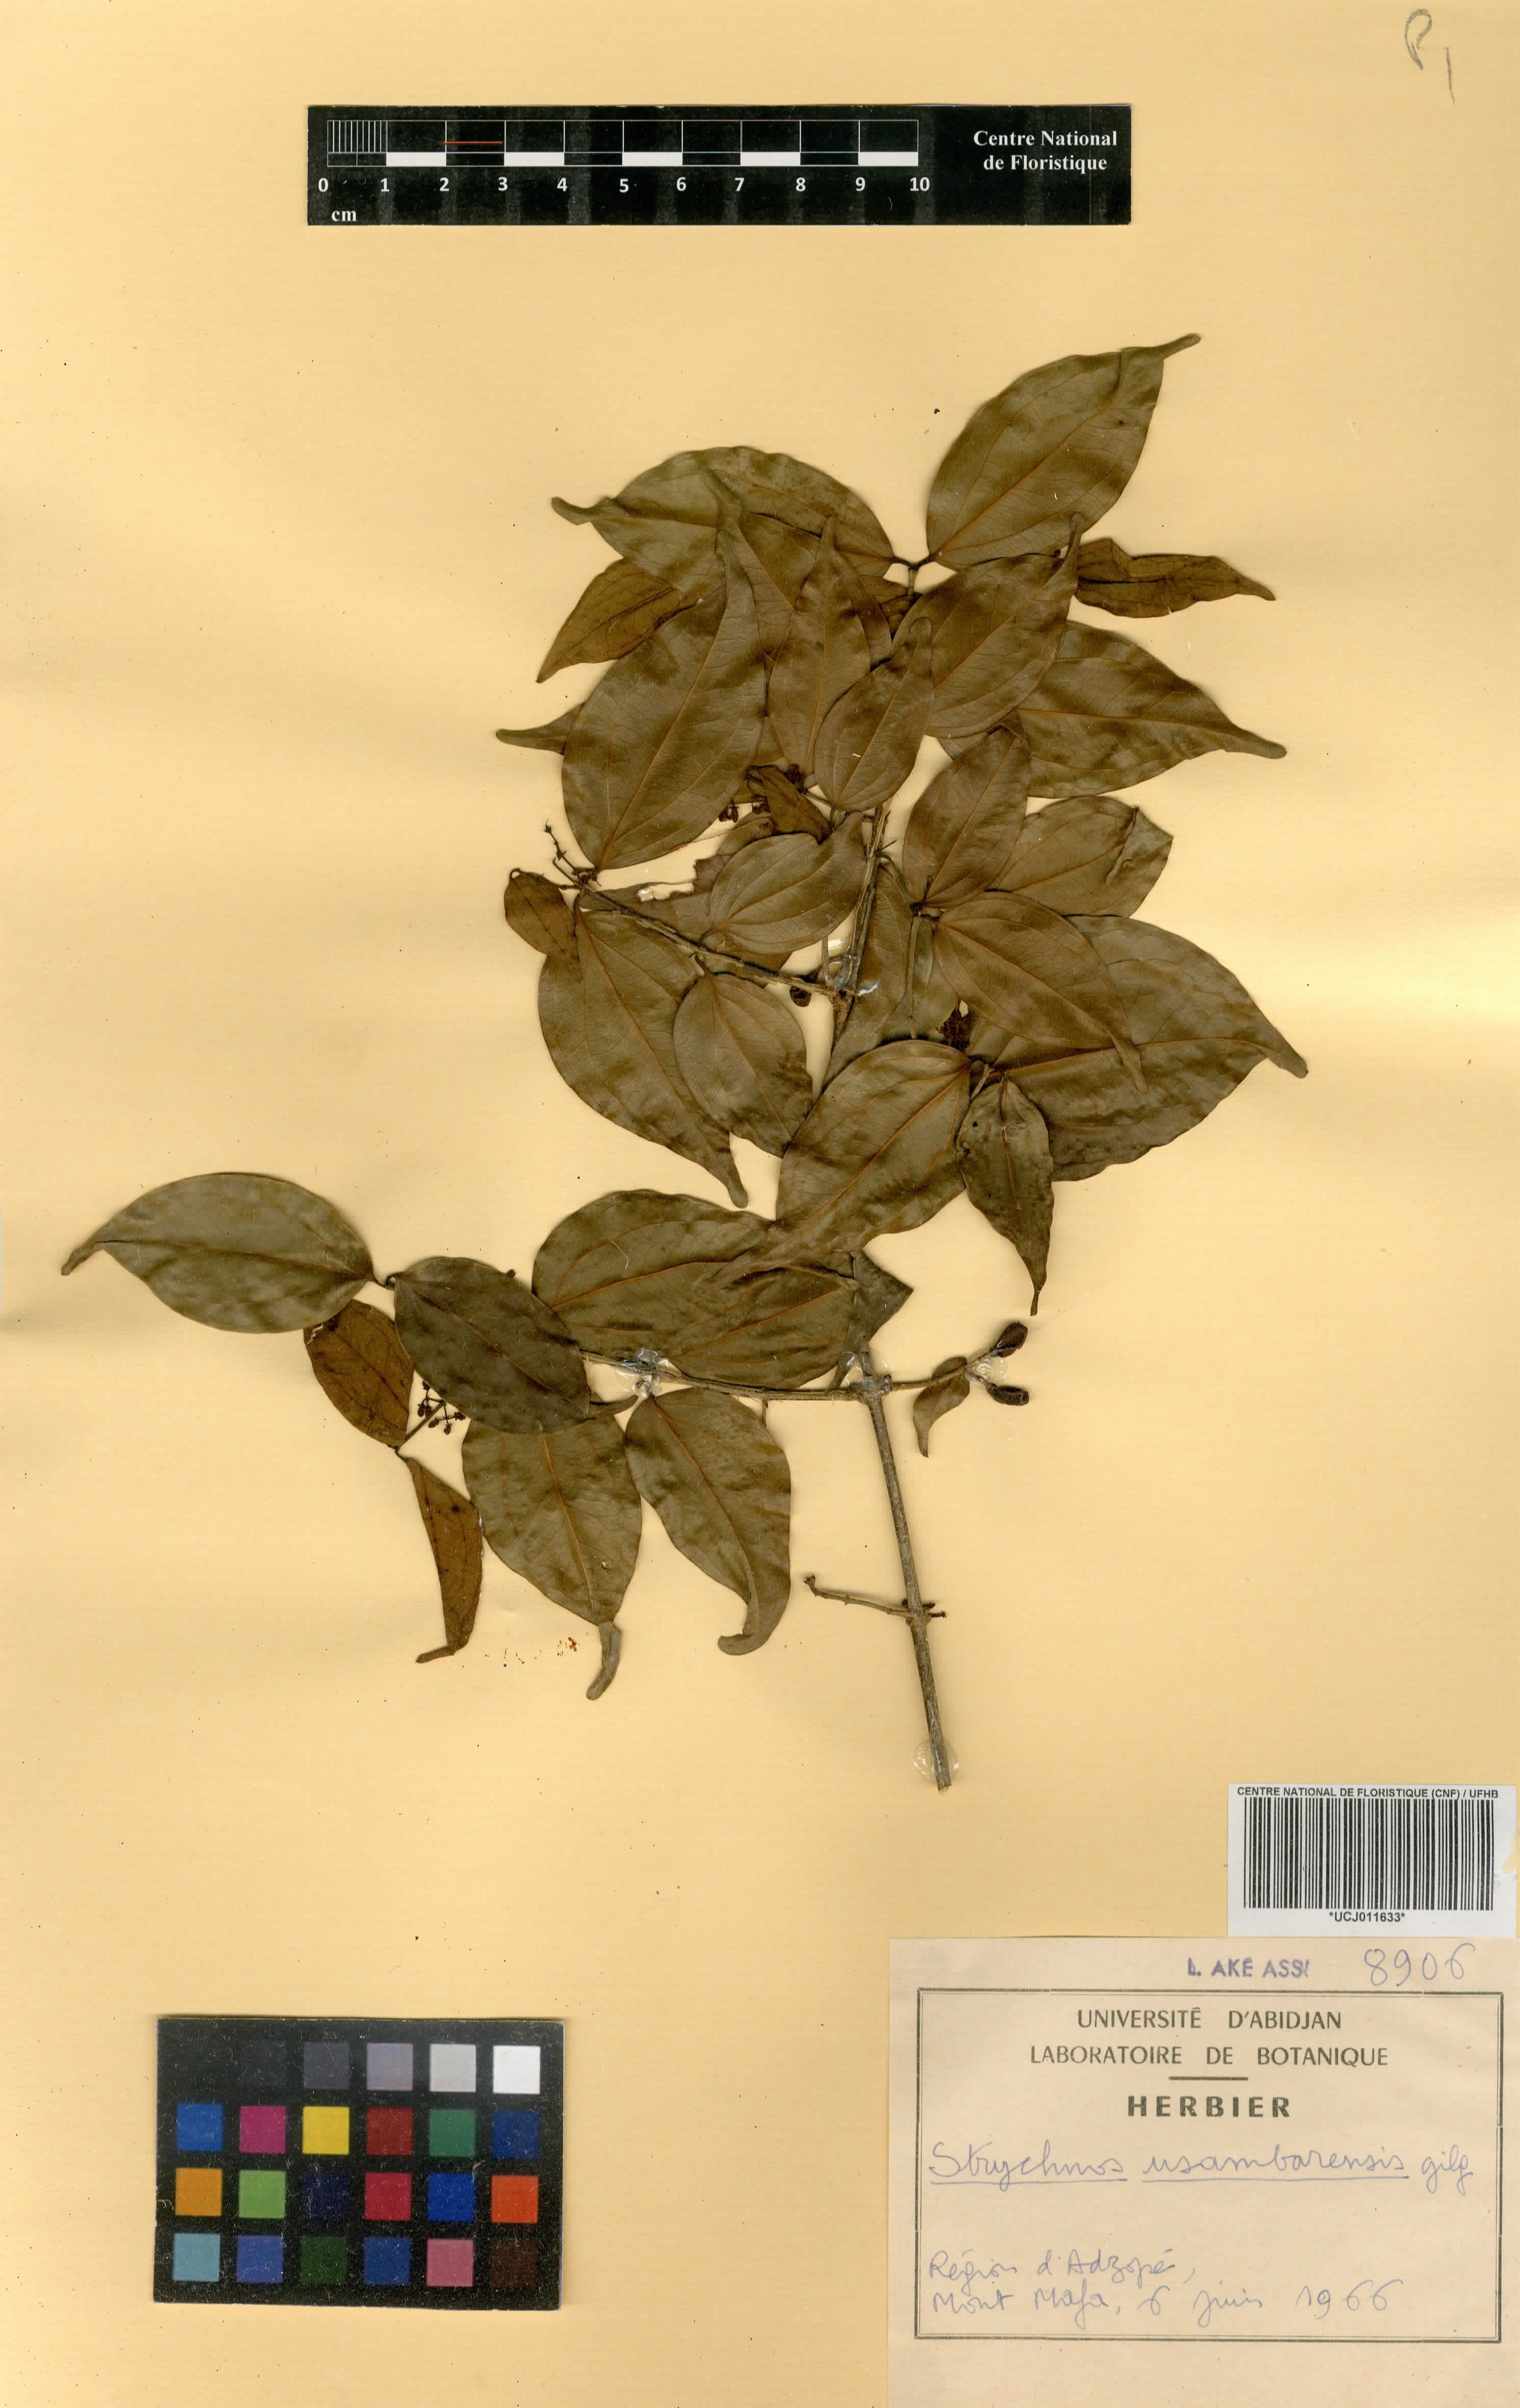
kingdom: Plantae
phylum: Tracheophyta
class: Magnoliopsida
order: Gentianales
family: Loganiaceae
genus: Strychnos
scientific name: Strychnos usambarensis
